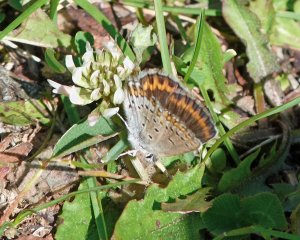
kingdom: Animalia
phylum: Arthropoda
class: Insecta
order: Lepidoptera
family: Lycaenidae
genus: Lycaeides
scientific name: Lycaeides melissa
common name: Melissa Blue
